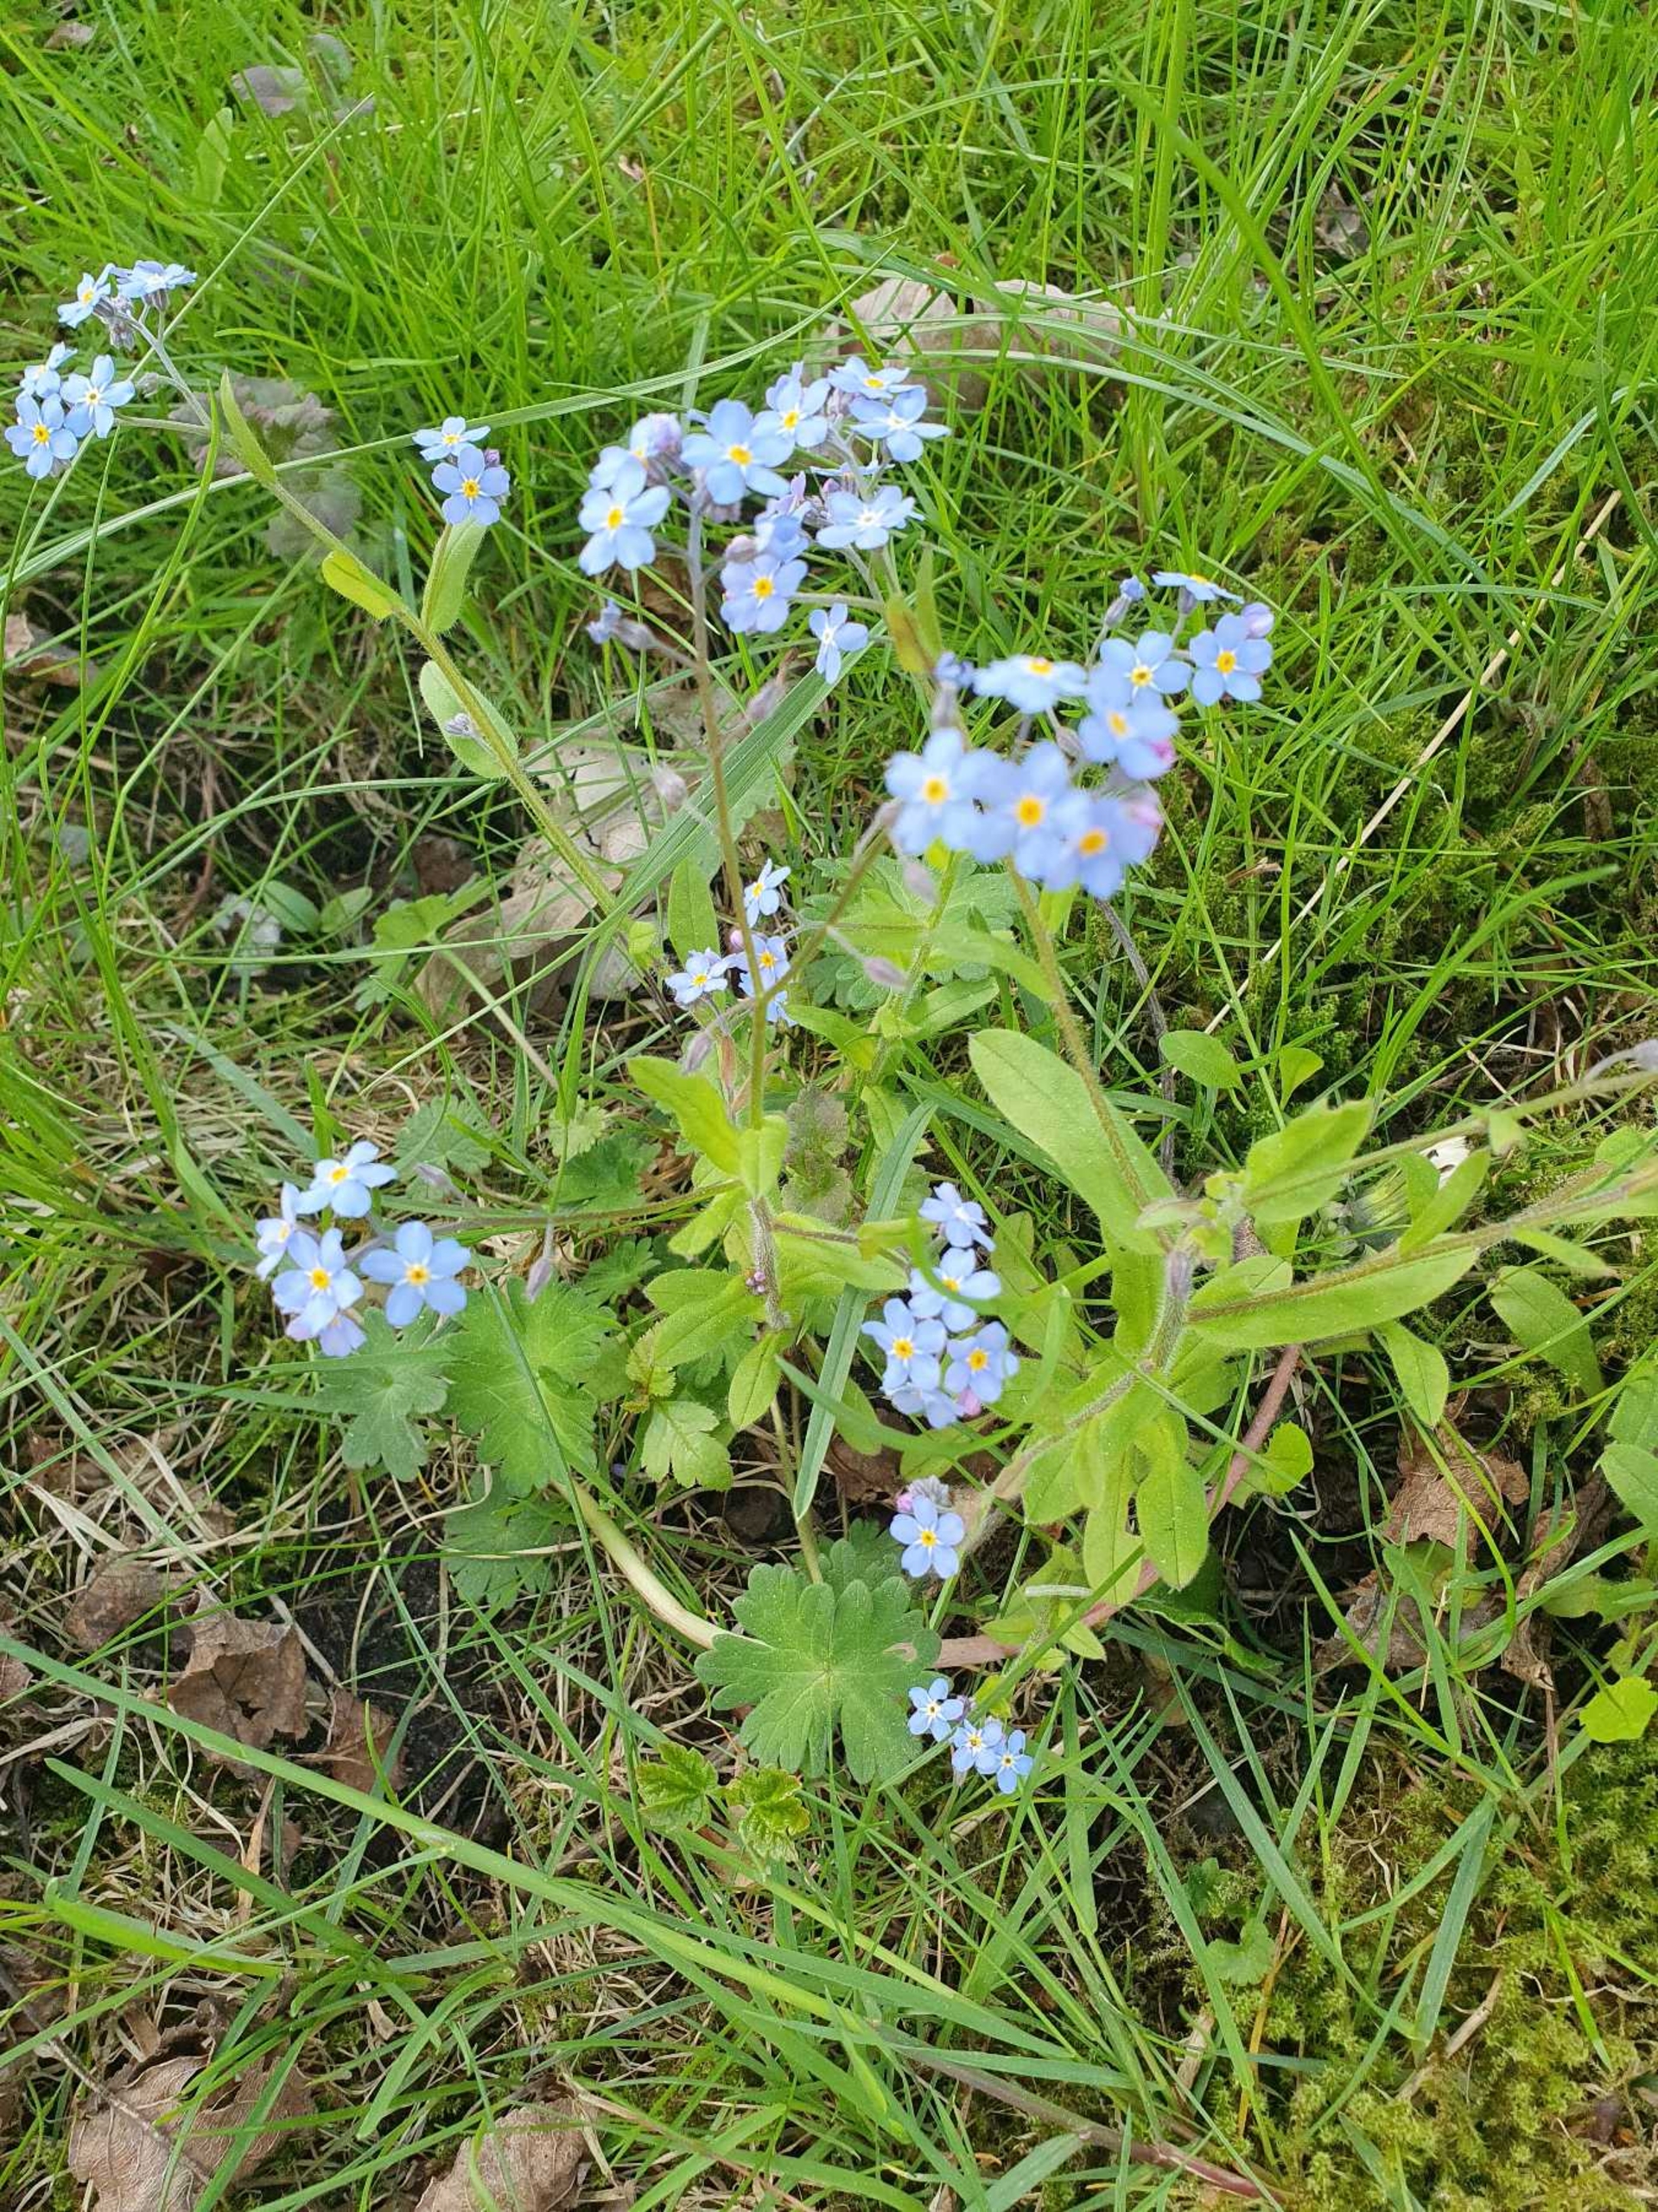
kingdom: Plantae
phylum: Tracheophyta
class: Magnoliopsida
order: Boraginales
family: Boraginaceae
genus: Myosotis
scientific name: Myosotis sylvatica
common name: Skov-forglemmigej
